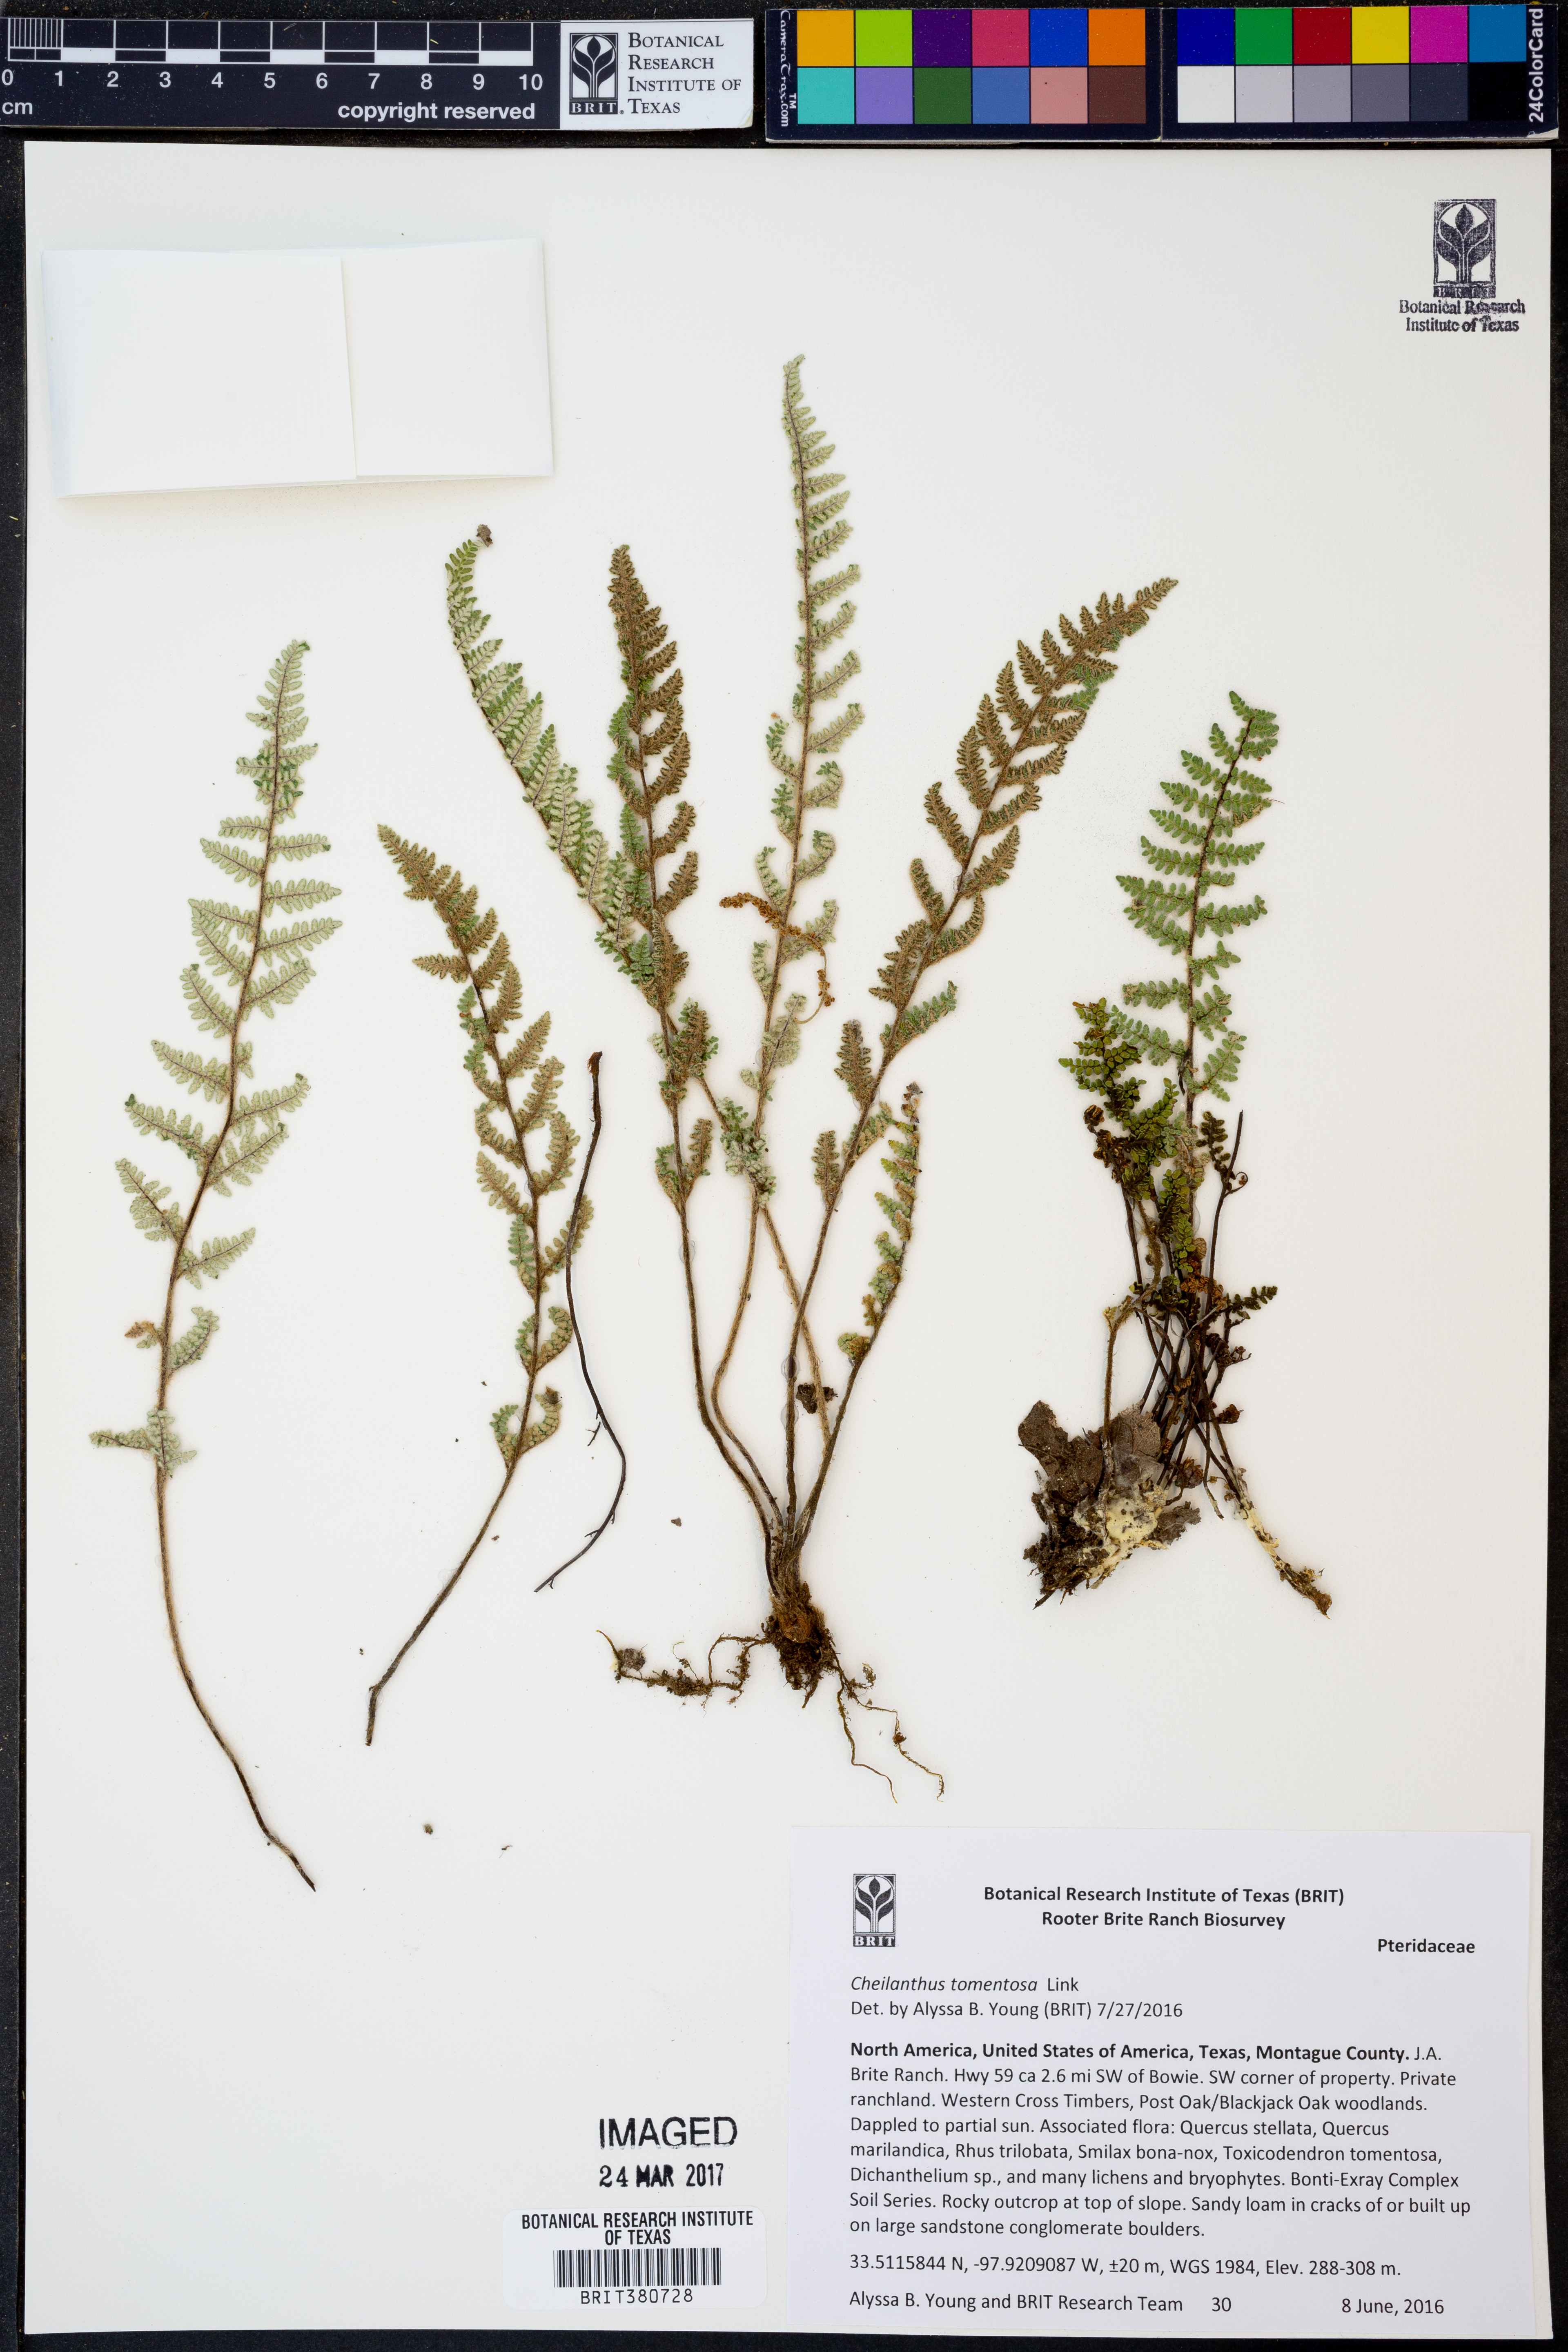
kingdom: Plantae
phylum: Tracheophyta
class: Polypodiopsida
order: Polypodiales
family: Pteridaceae
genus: Myriopteris
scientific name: Myriopteris tomentosa
